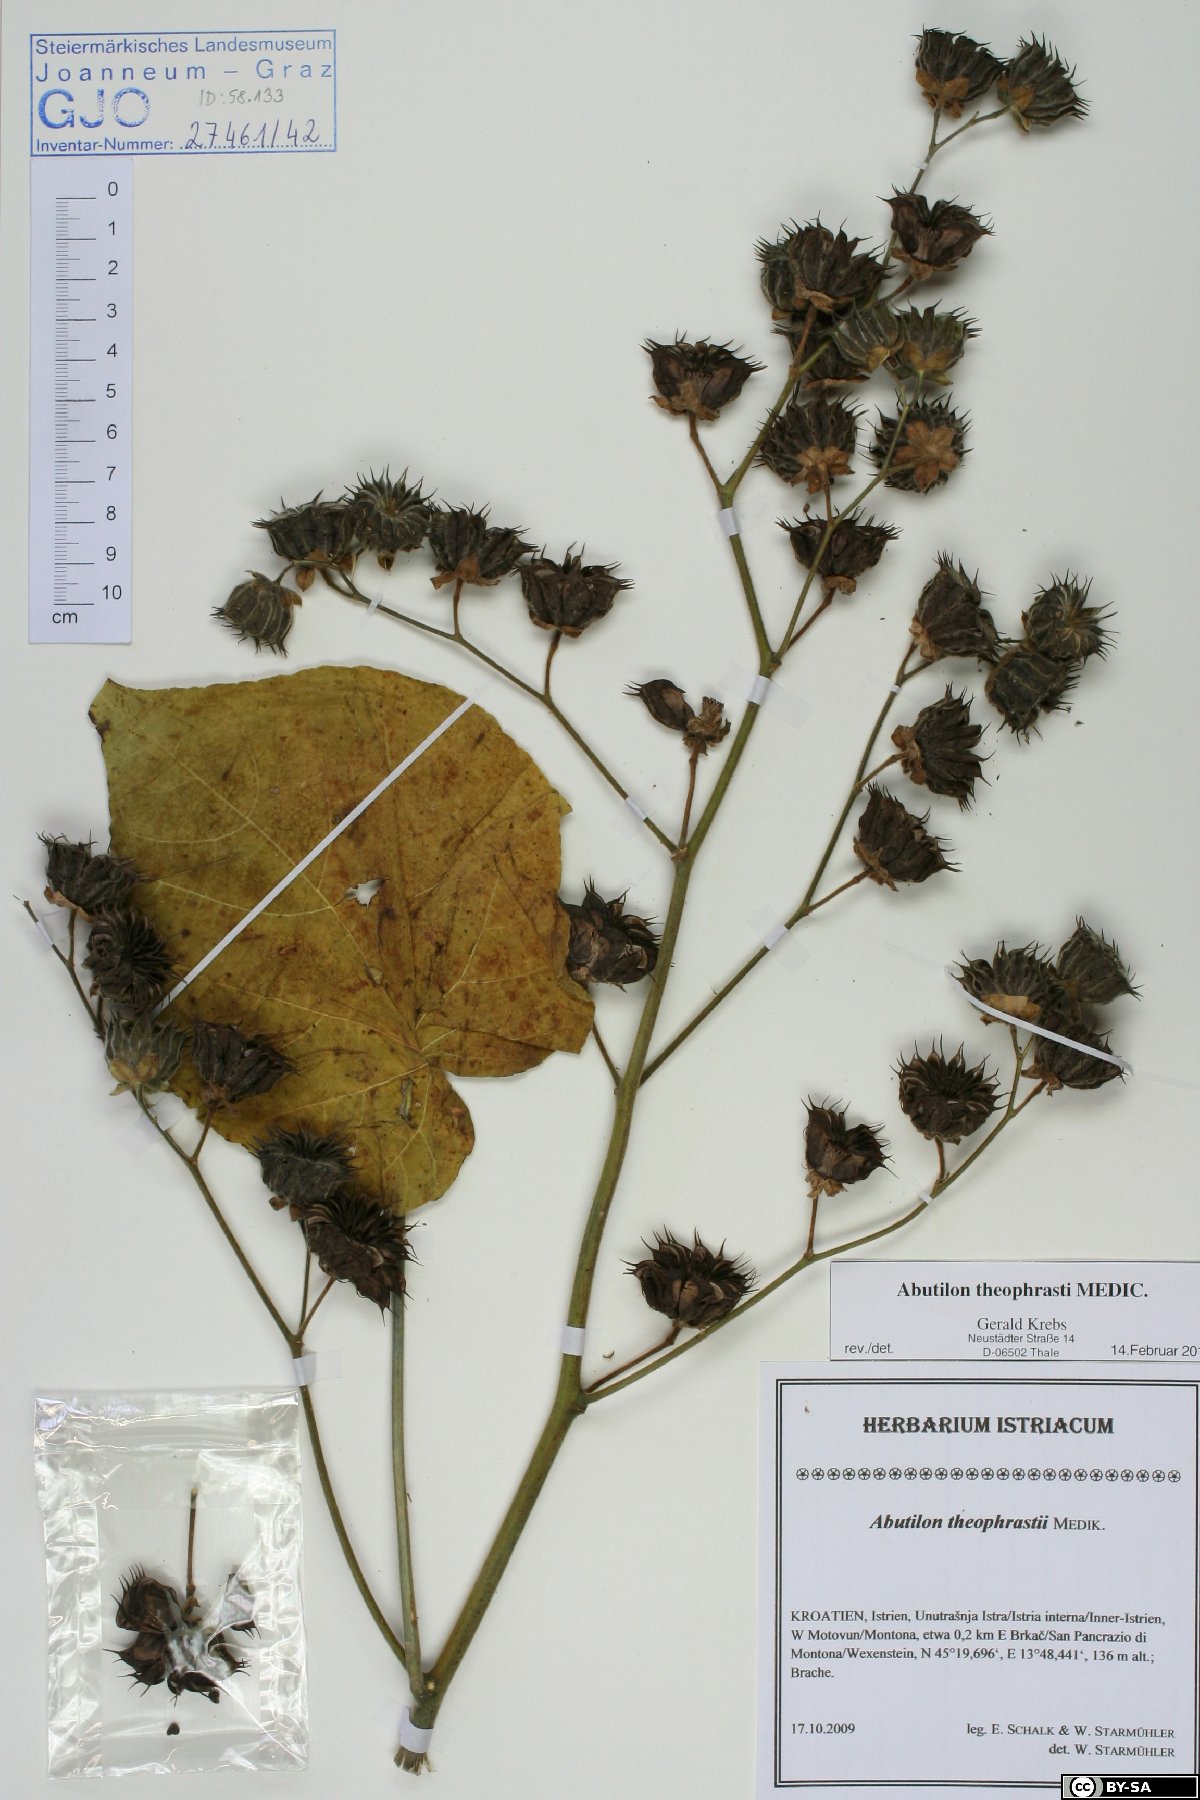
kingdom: Plantae
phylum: Tracheophyta
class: Magnoliopsida
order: Malvales
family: Malvaceae
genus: Abutilon
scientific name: Abutilon theophrasti
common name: Velvetleaf
